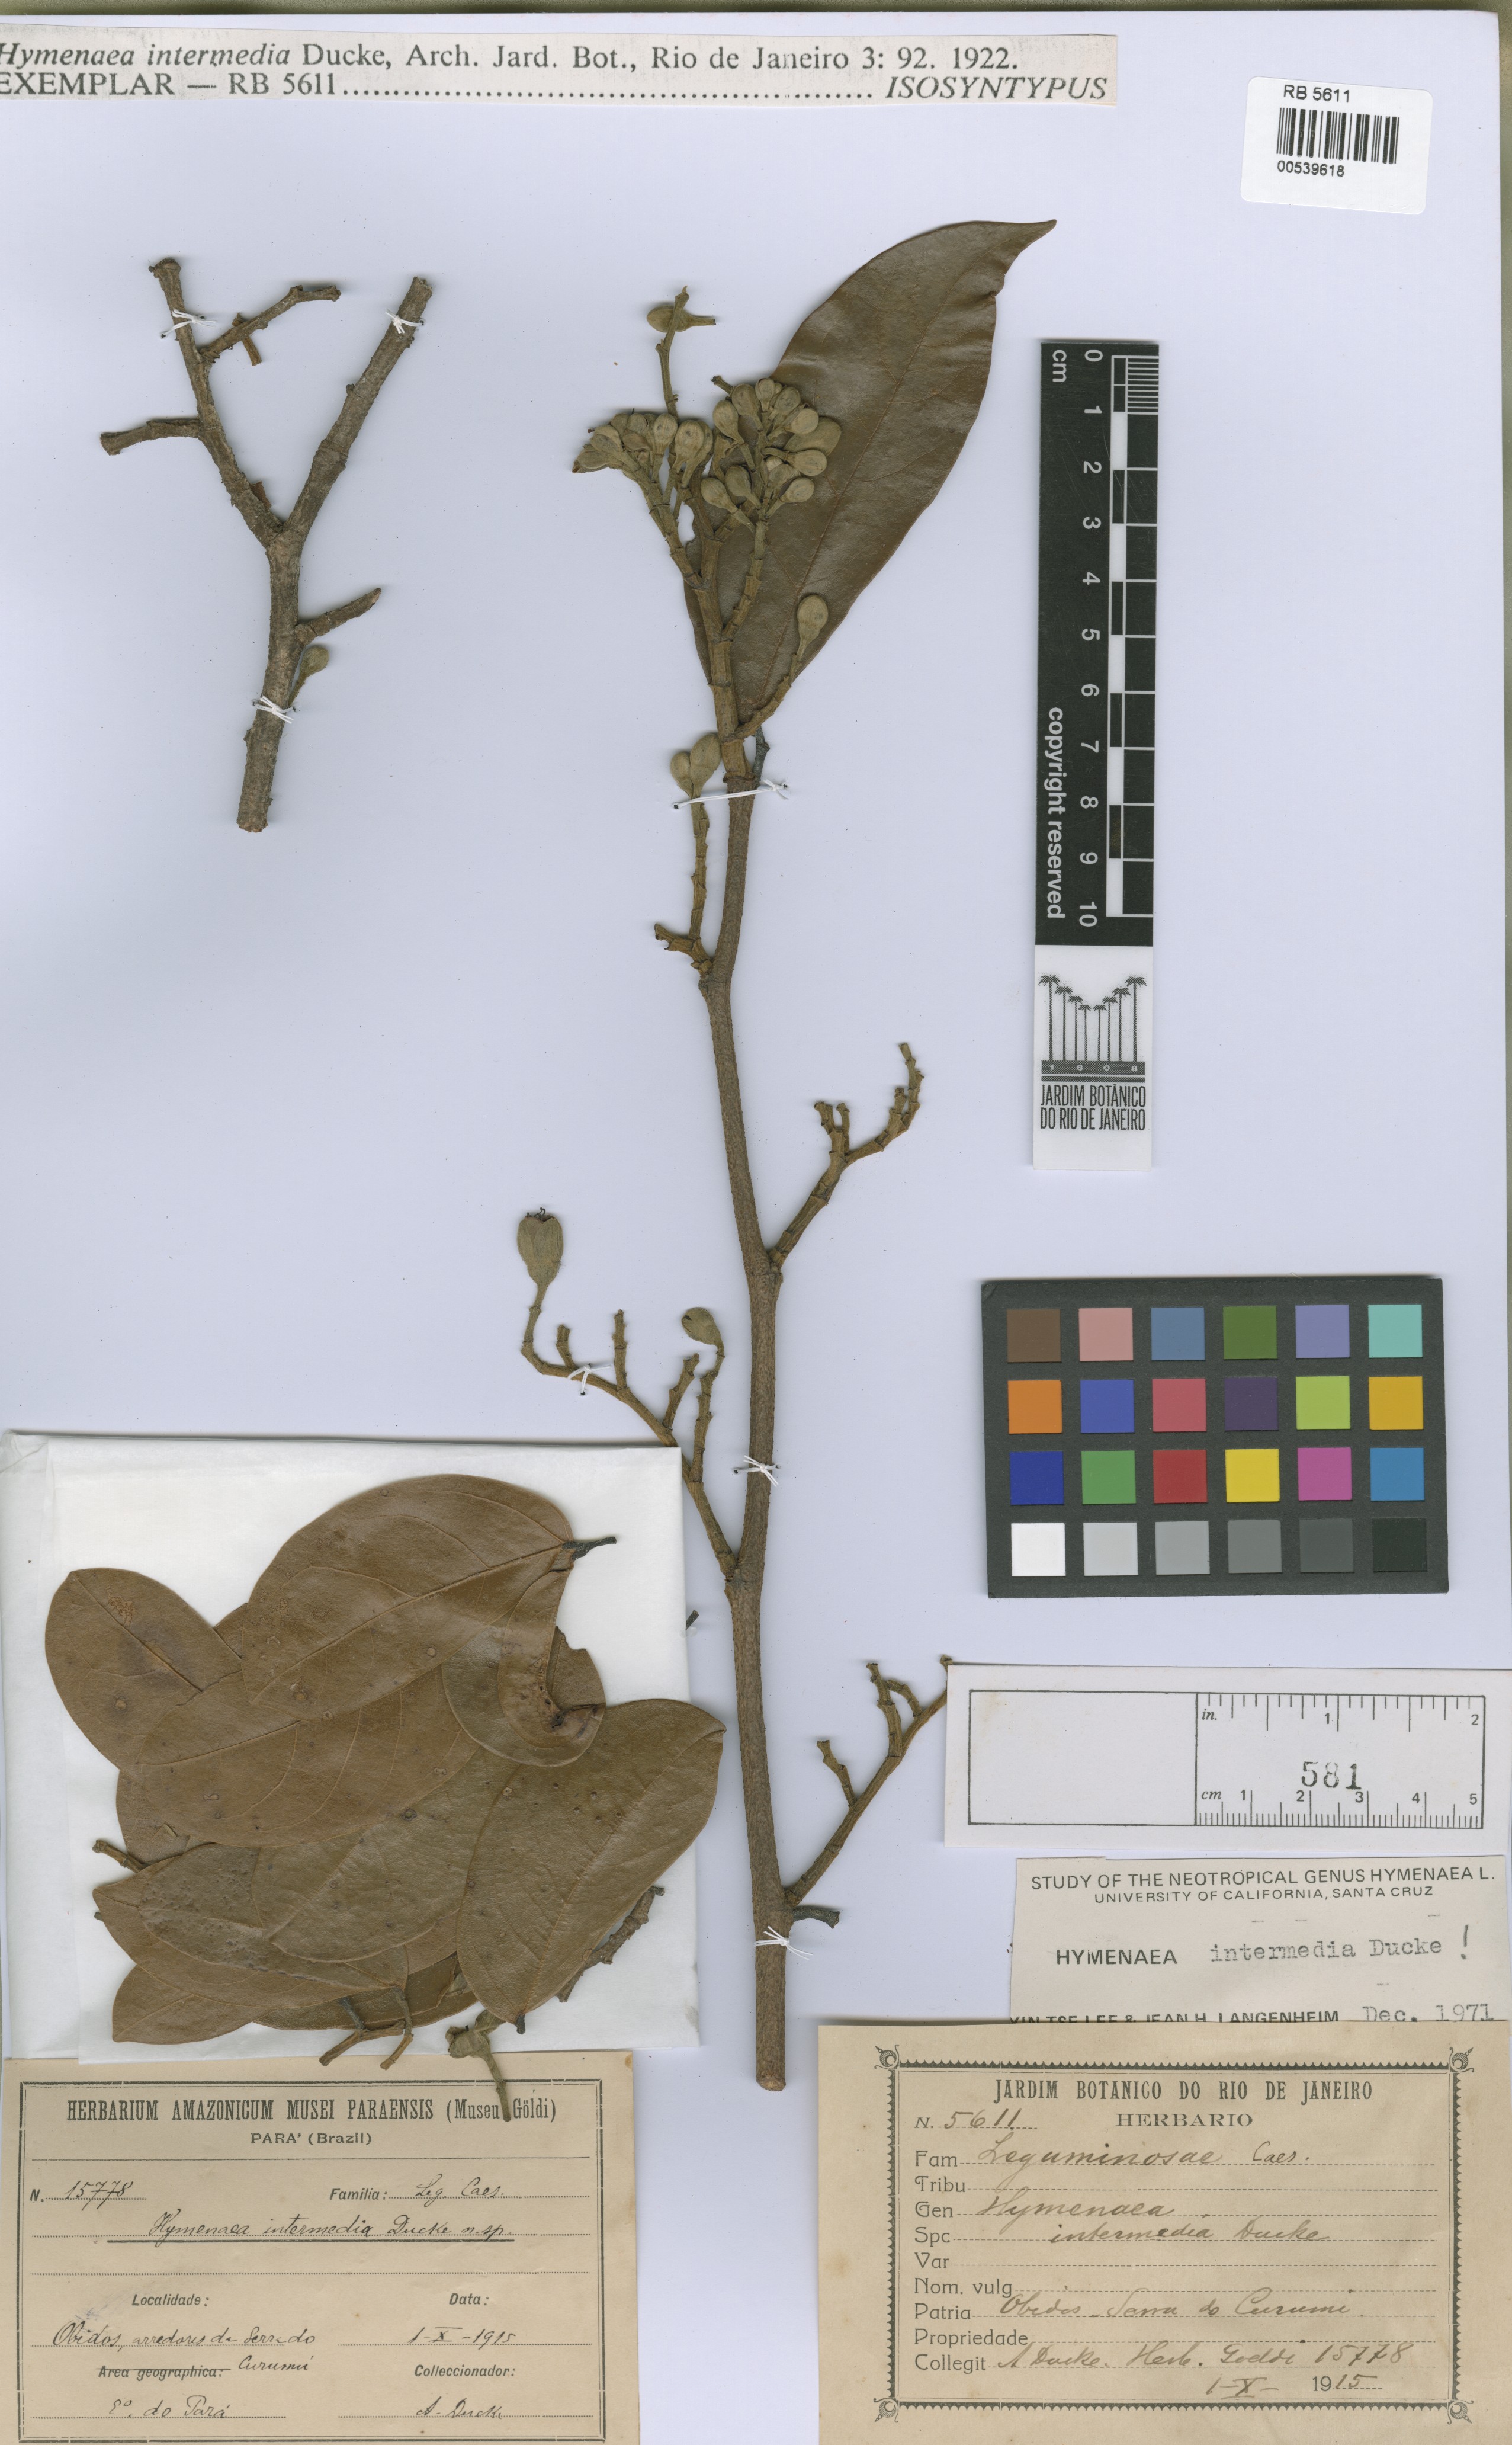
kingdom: Plantae
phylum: Tracheophyta
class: Magnoliopsida
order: Fabales
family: Fabaceae
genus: Hymenaea
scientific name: Hymenaea intermedia
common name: South american copal
